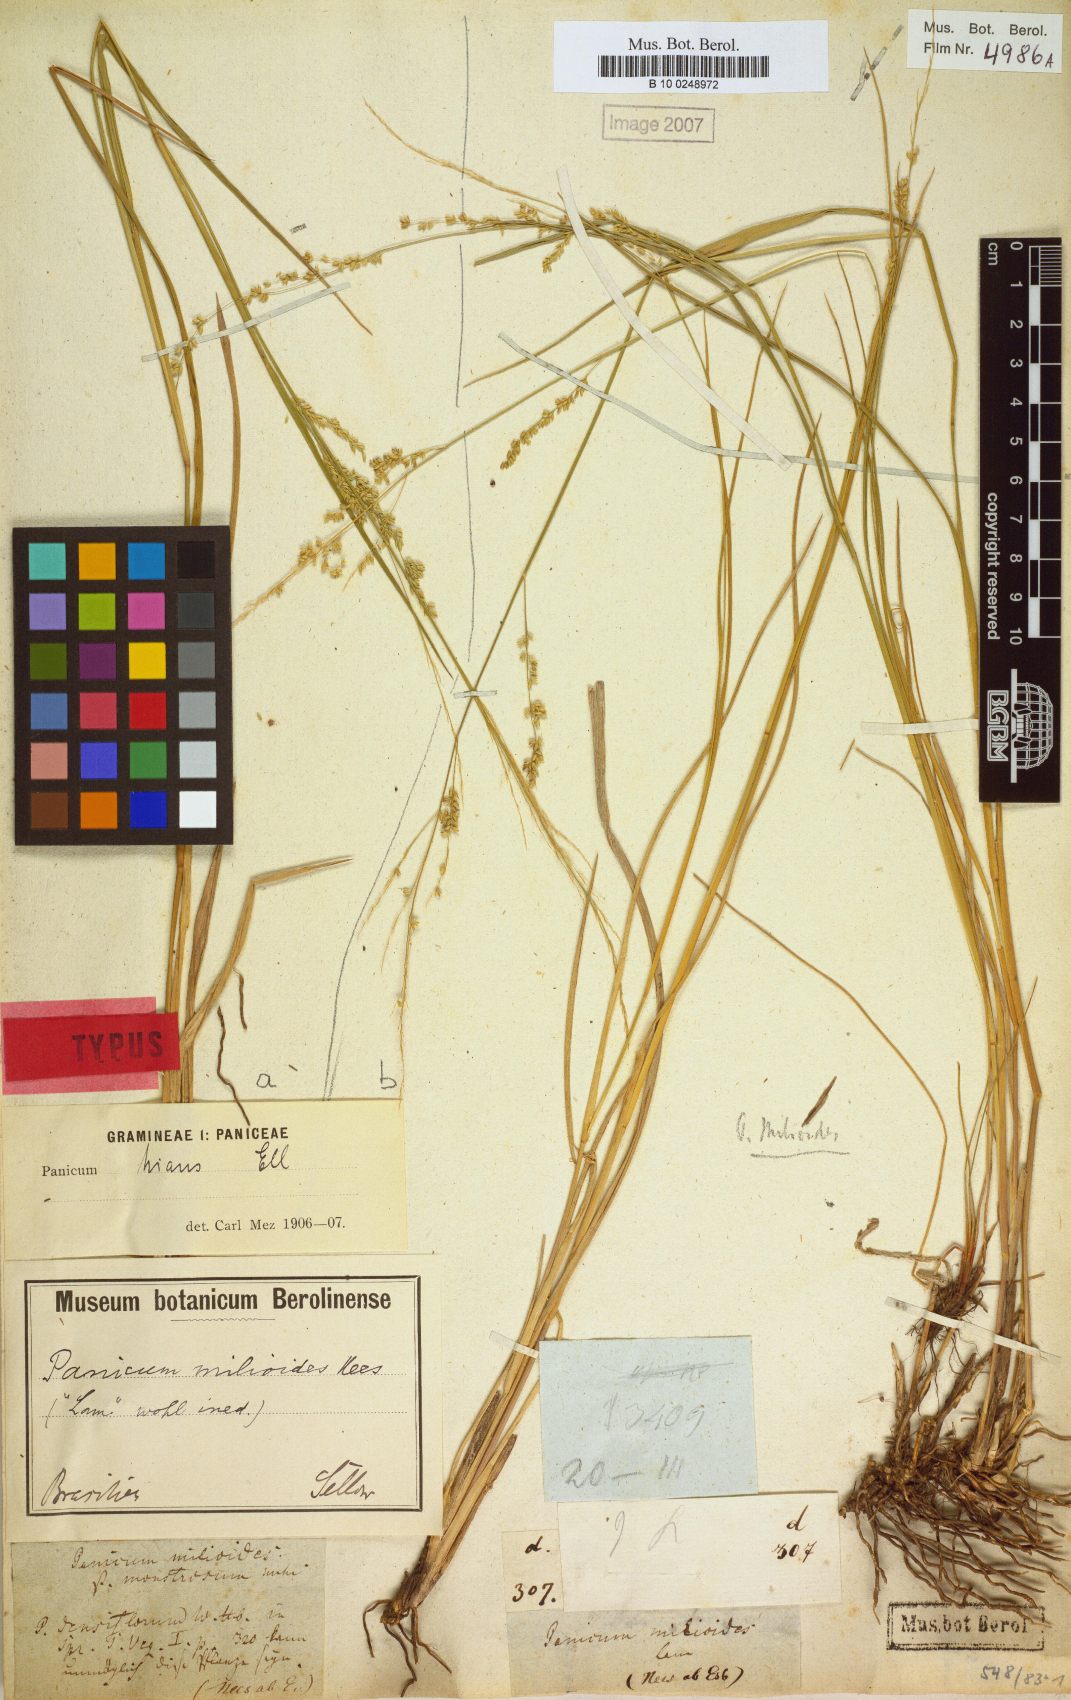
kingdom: Plantae
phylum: Tracheophyta
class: Liliopsida
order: Poales
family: Poaceae
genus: Steinchisma
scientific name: Steinchisma hians
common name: Gaping panic grass
